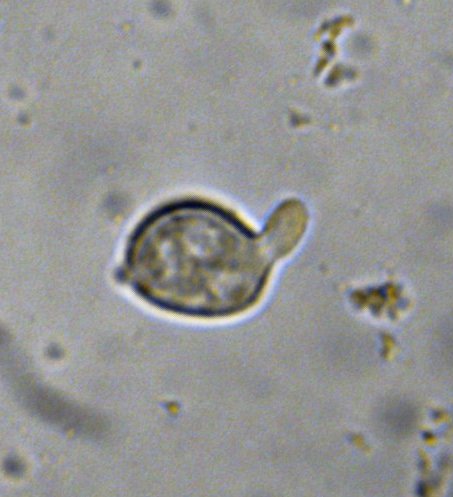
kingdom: Fungi
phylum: Basidiomycota
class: Agaricomycetes
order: Agaricales
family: Niaceae
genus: Lachnella
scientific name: Lachnella alboviolascens
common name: grå frynserede
